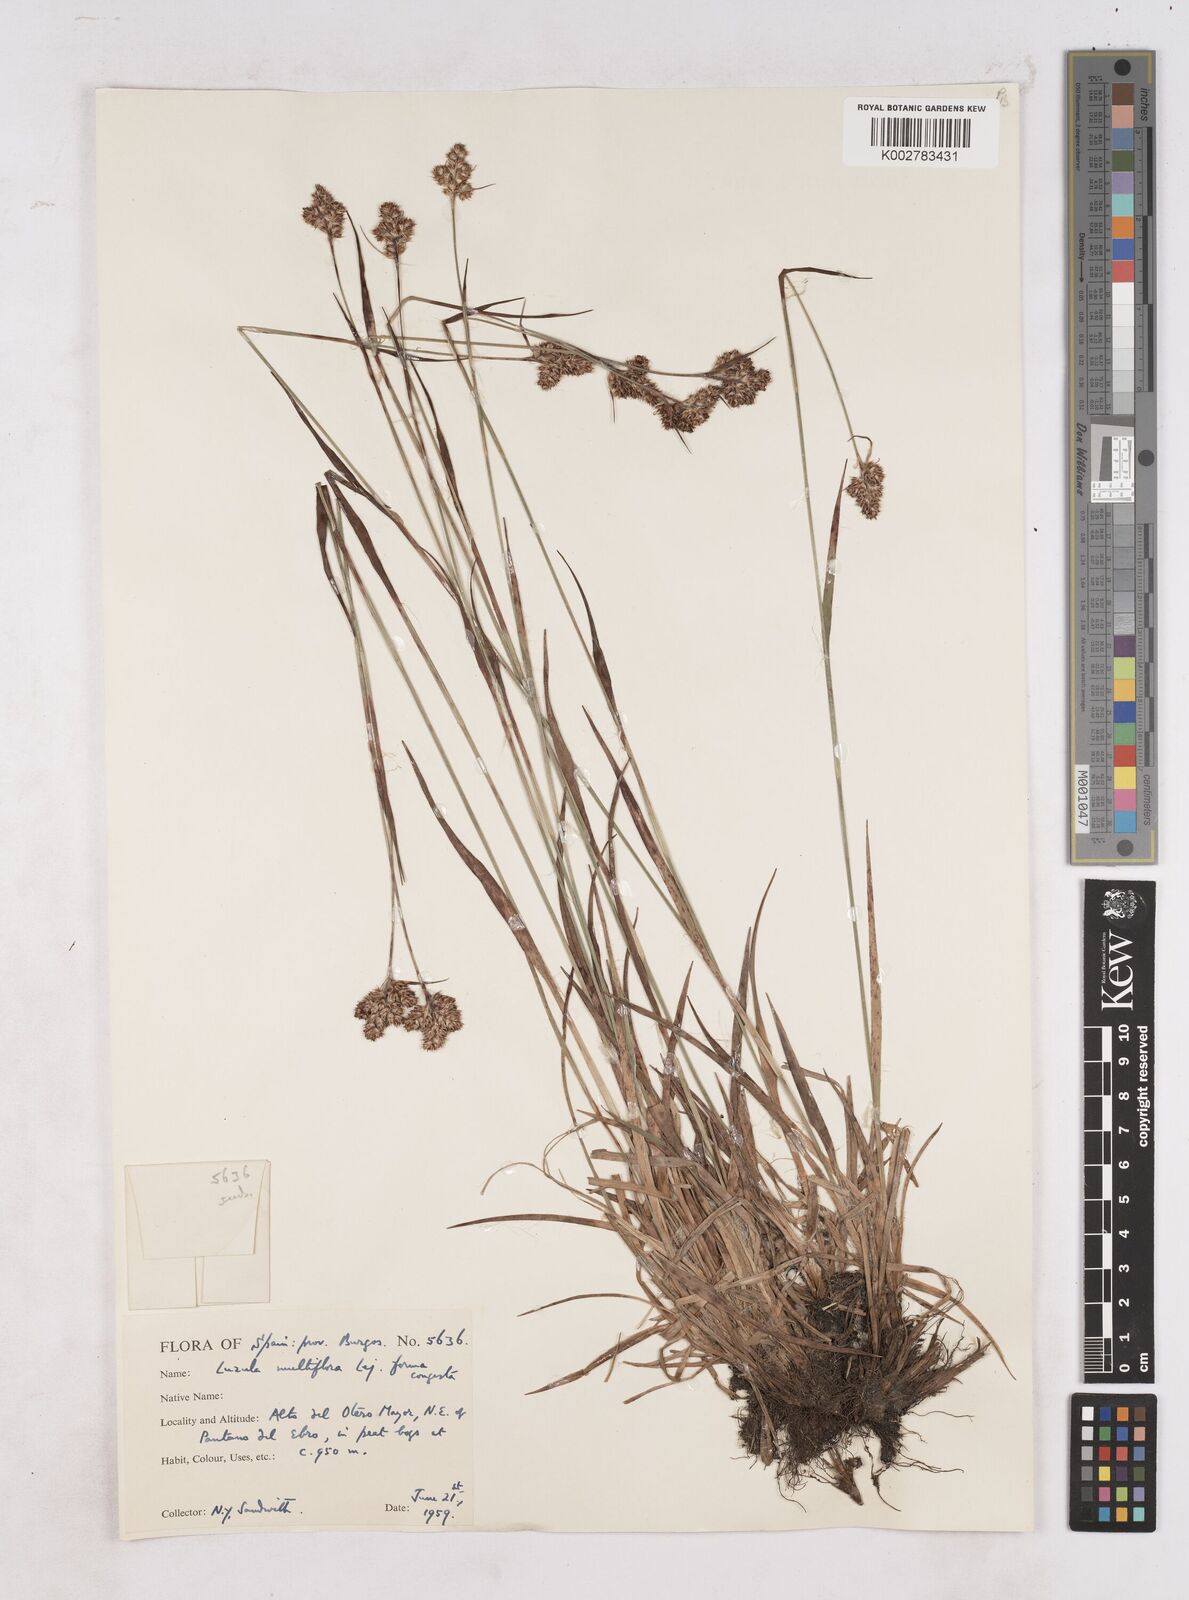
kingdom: Plantae
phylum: Tracheophyta
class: Liliopsida
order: Poales
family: Juncaceae
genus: Luzula
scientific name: Luzula multiflora
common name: Heath wood-rush
